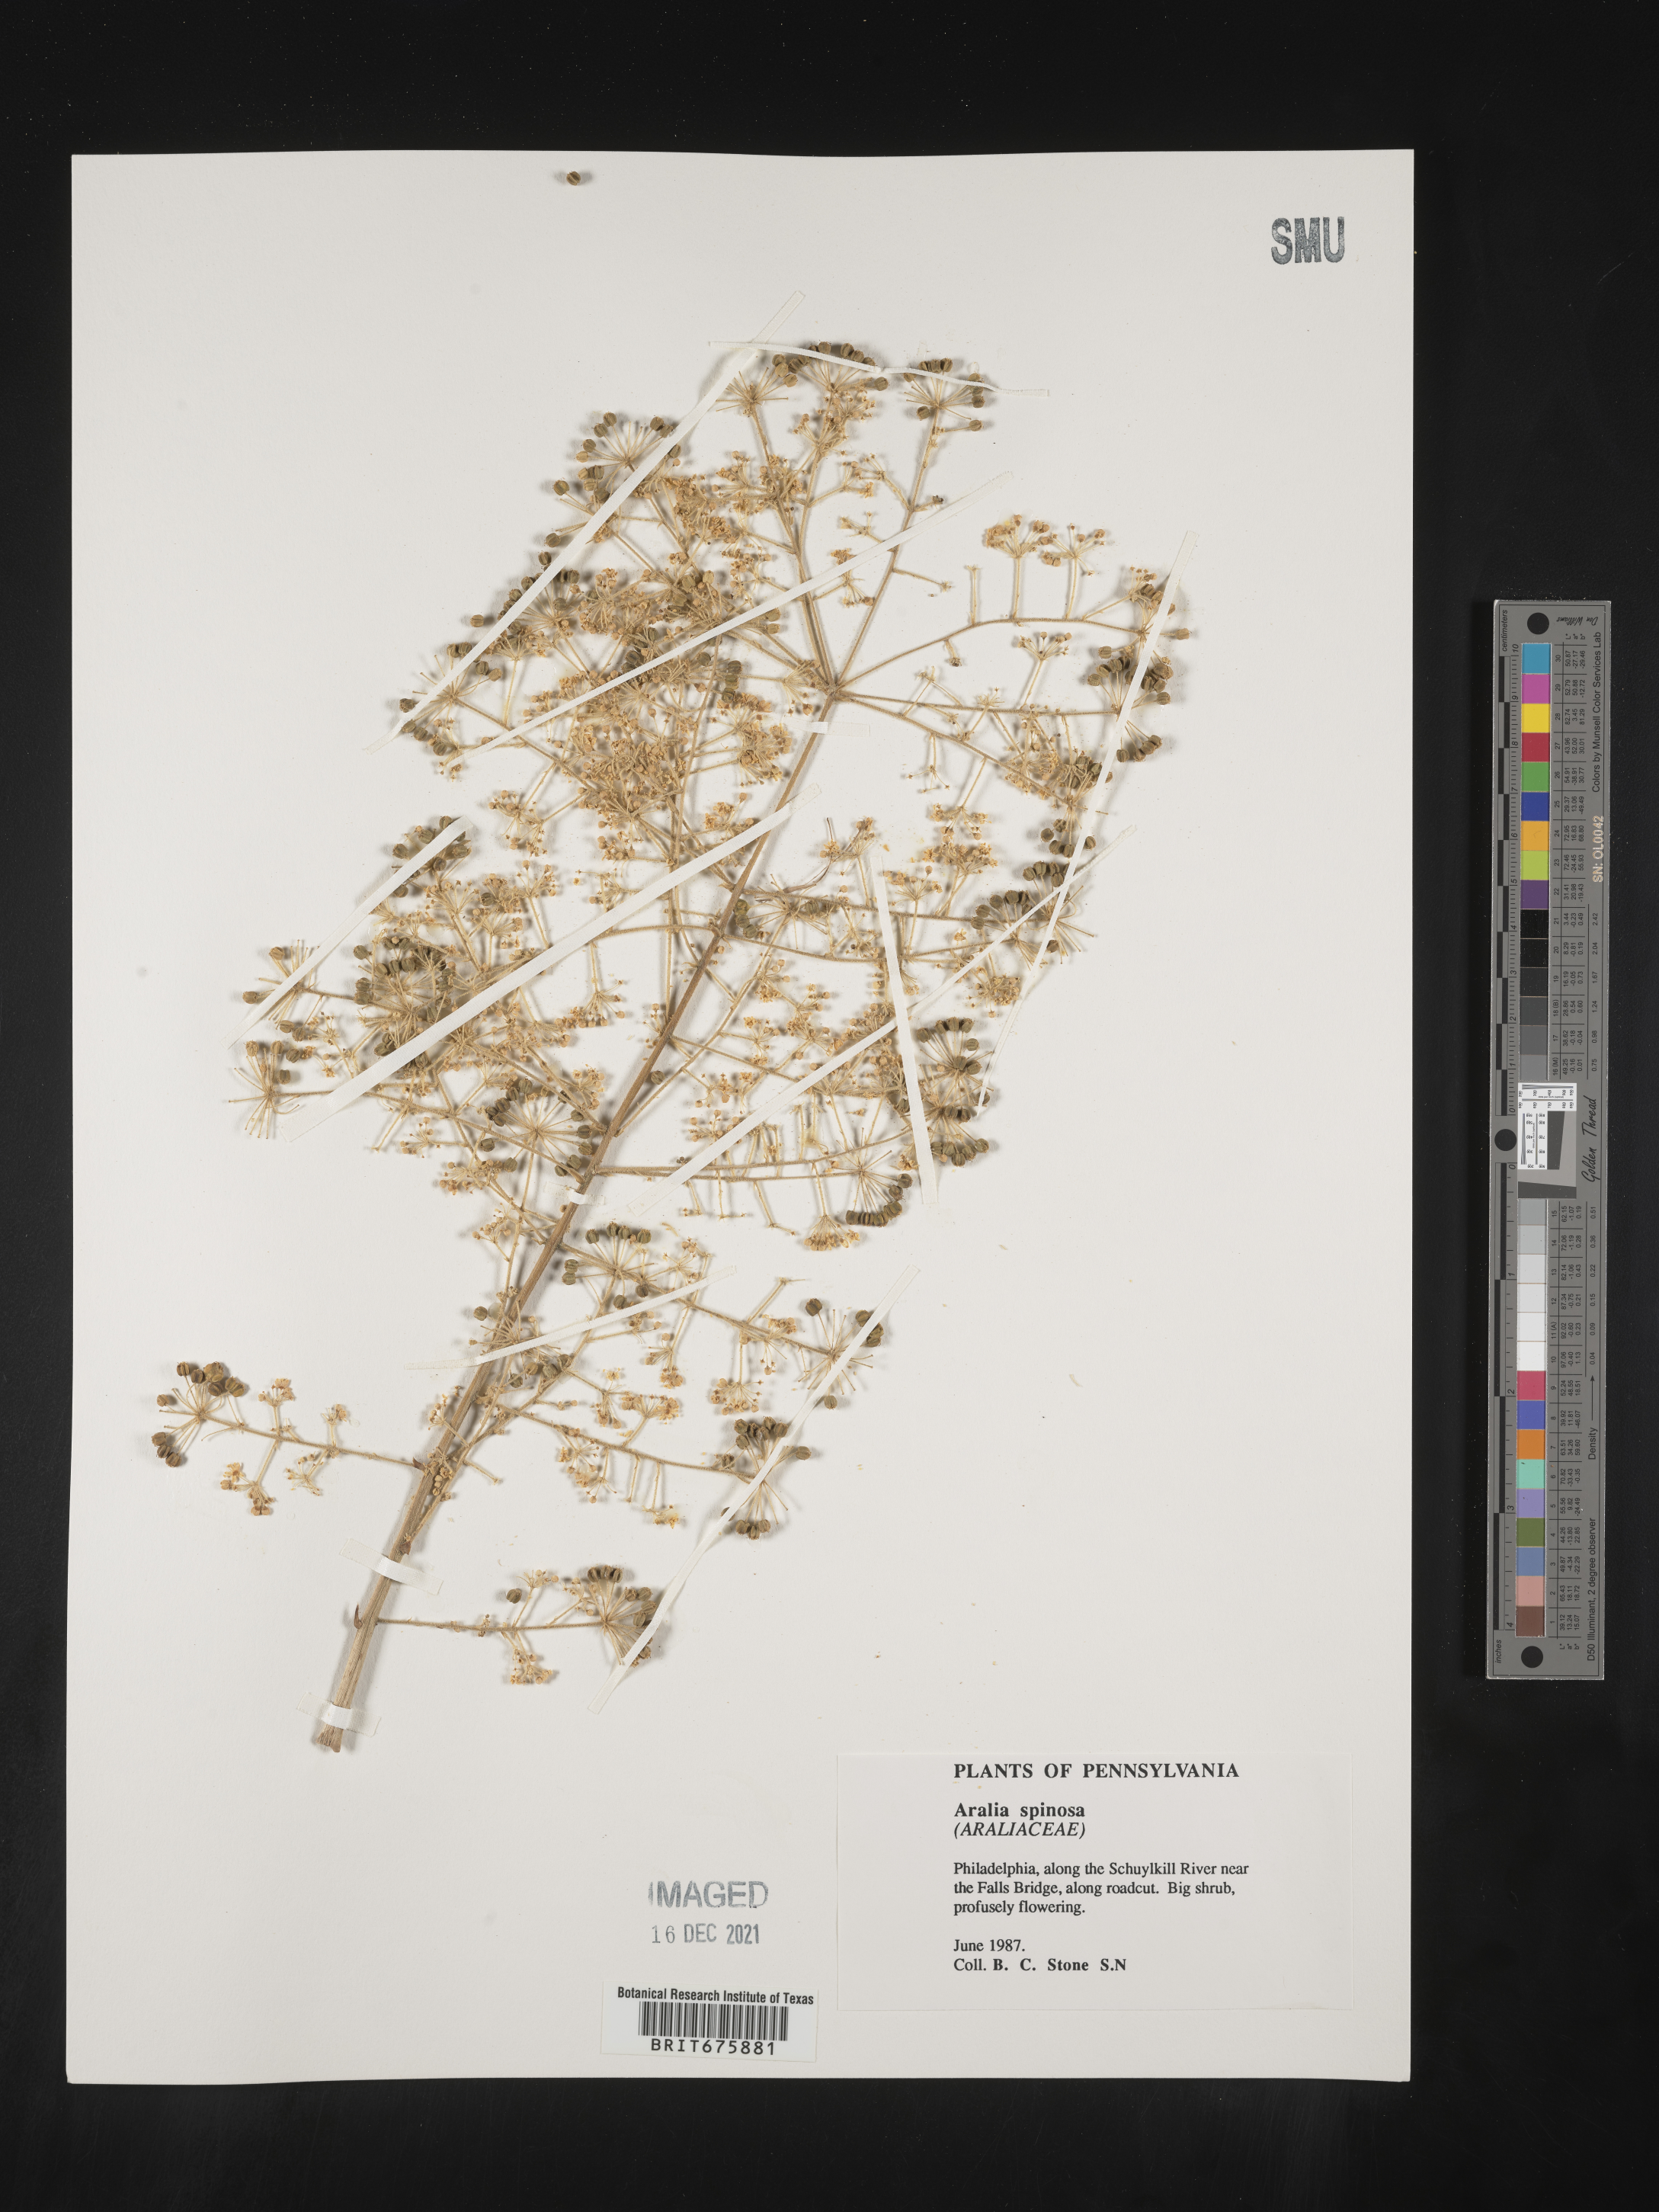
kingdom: Plantae
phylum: Tracheophyta
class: Magnoliopsida
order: Apiales
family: Araliaceae
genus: Aralia
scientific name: Aralia spinosa
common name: Hercules'-club
